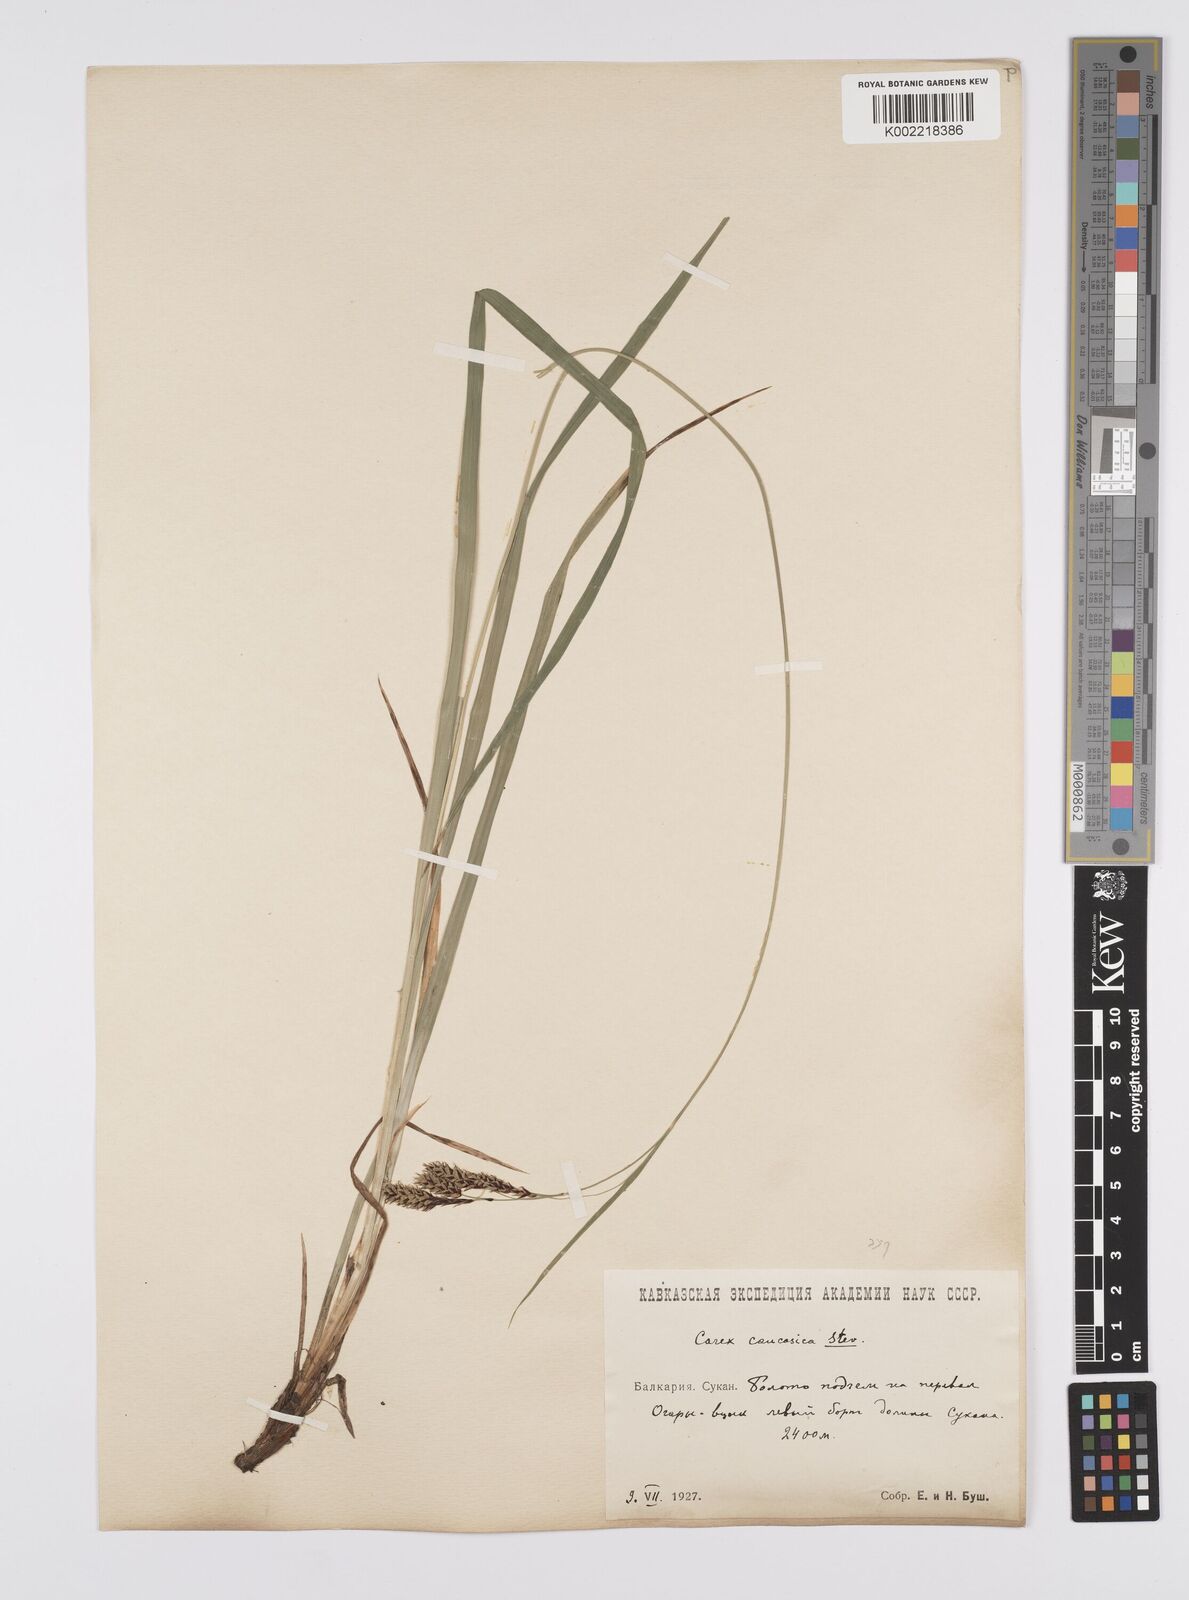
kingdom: Plantae
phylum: Tracheophyta
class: Liliopsida
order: Poales
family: Cyperaceae
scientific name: Cyperaceae
